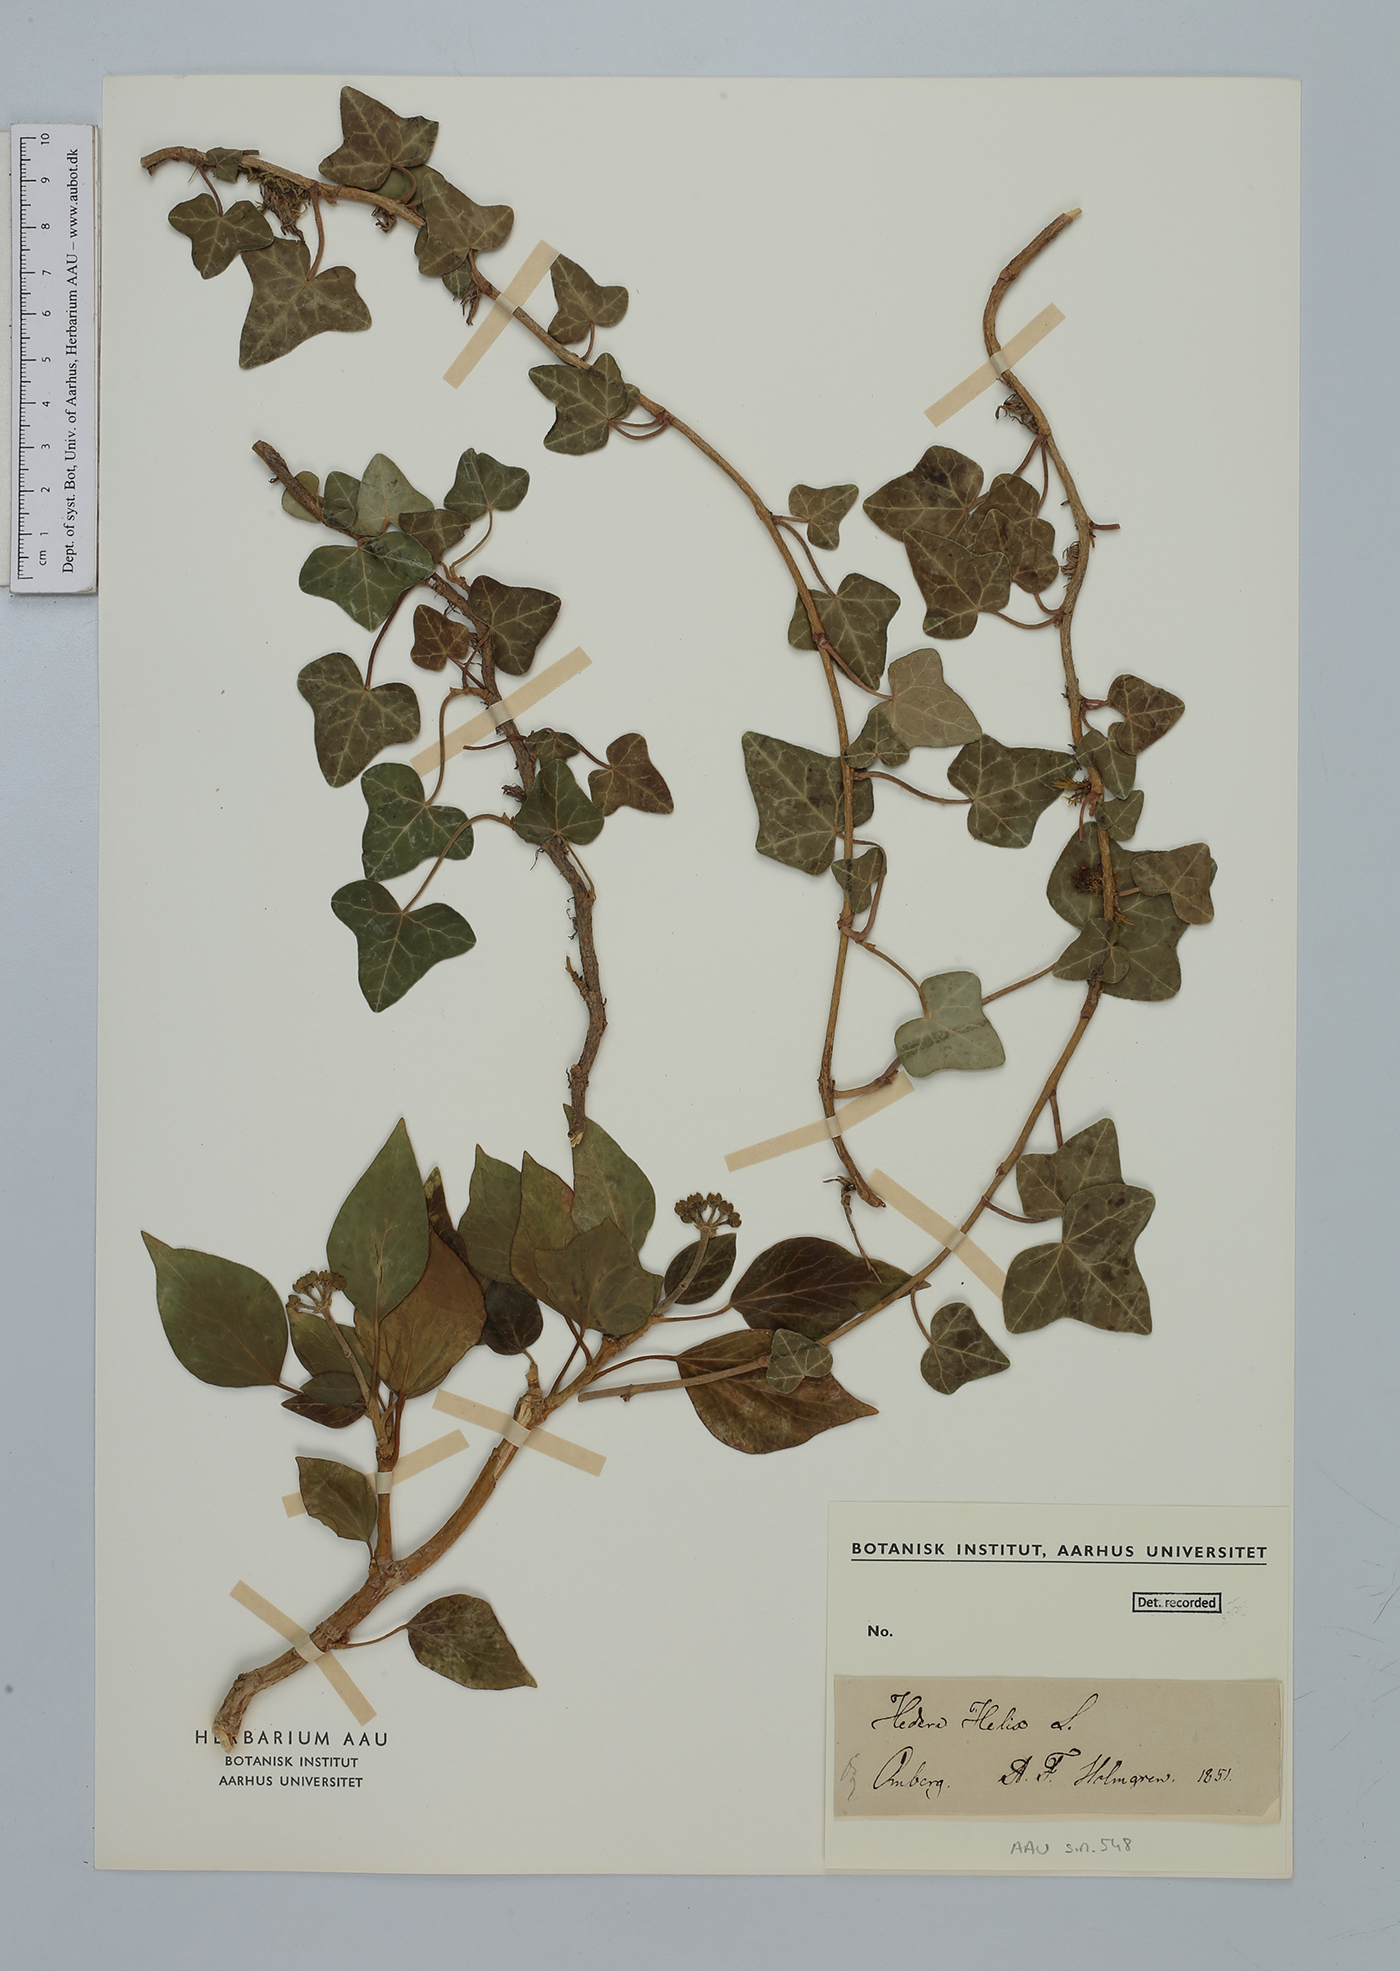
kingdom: Plantae
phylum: Tracheophyta
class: Magnoliopsida
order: Apiales
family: Araliaceae
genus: Hedera
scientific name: Hedera helix
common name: Ivy
